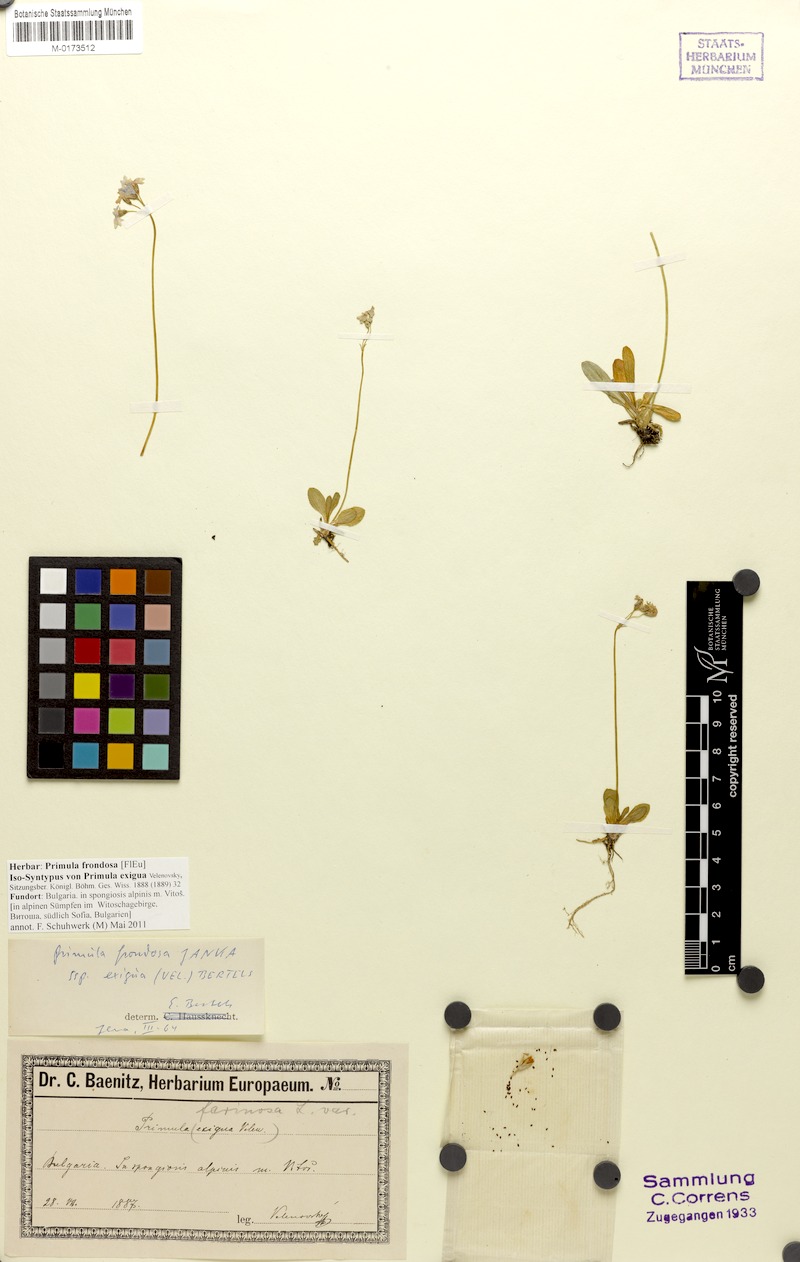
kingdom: Plantae
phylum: Tracheophyta
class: Magnoliopsida
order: Ericales
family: Primulaceae
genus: Primula
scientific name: Primula frondosa
